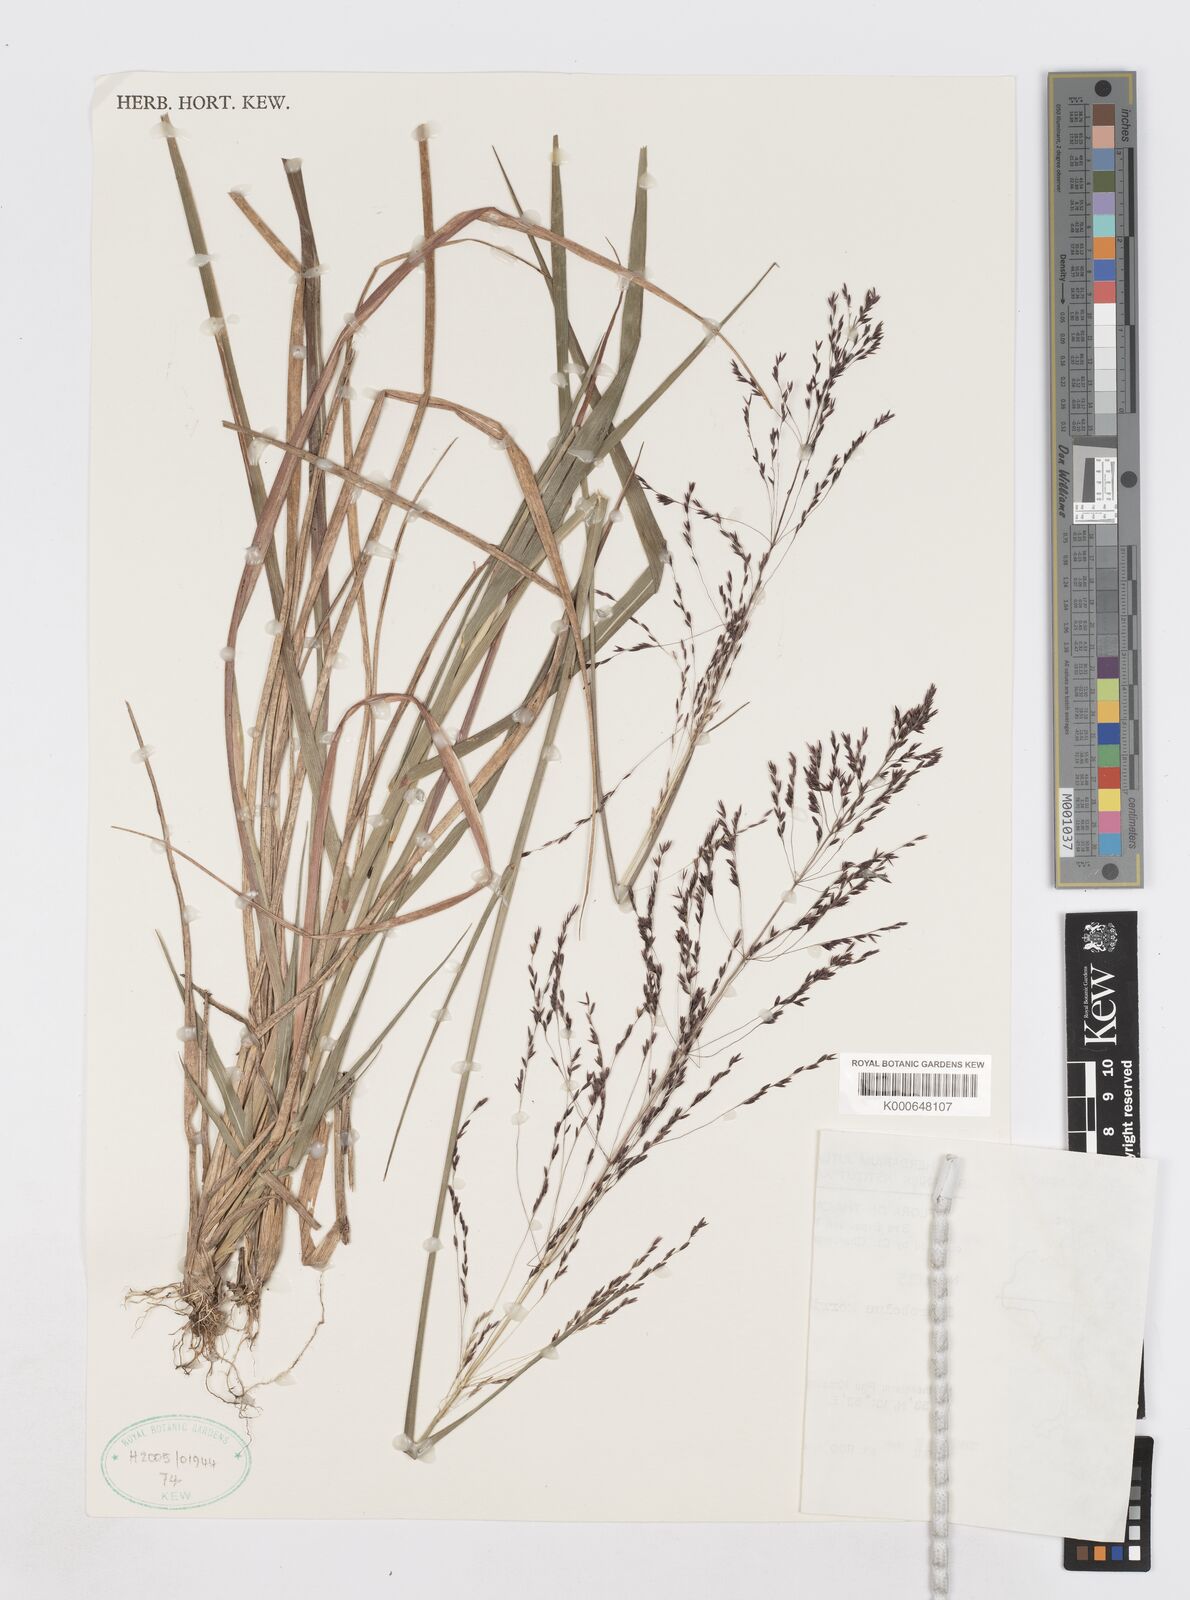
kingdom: Plantae
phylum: Tracheophyta
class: Liliopsida
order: Poales
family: Poaceae
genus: Sporobolus
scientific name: Sporobolus kerrii
